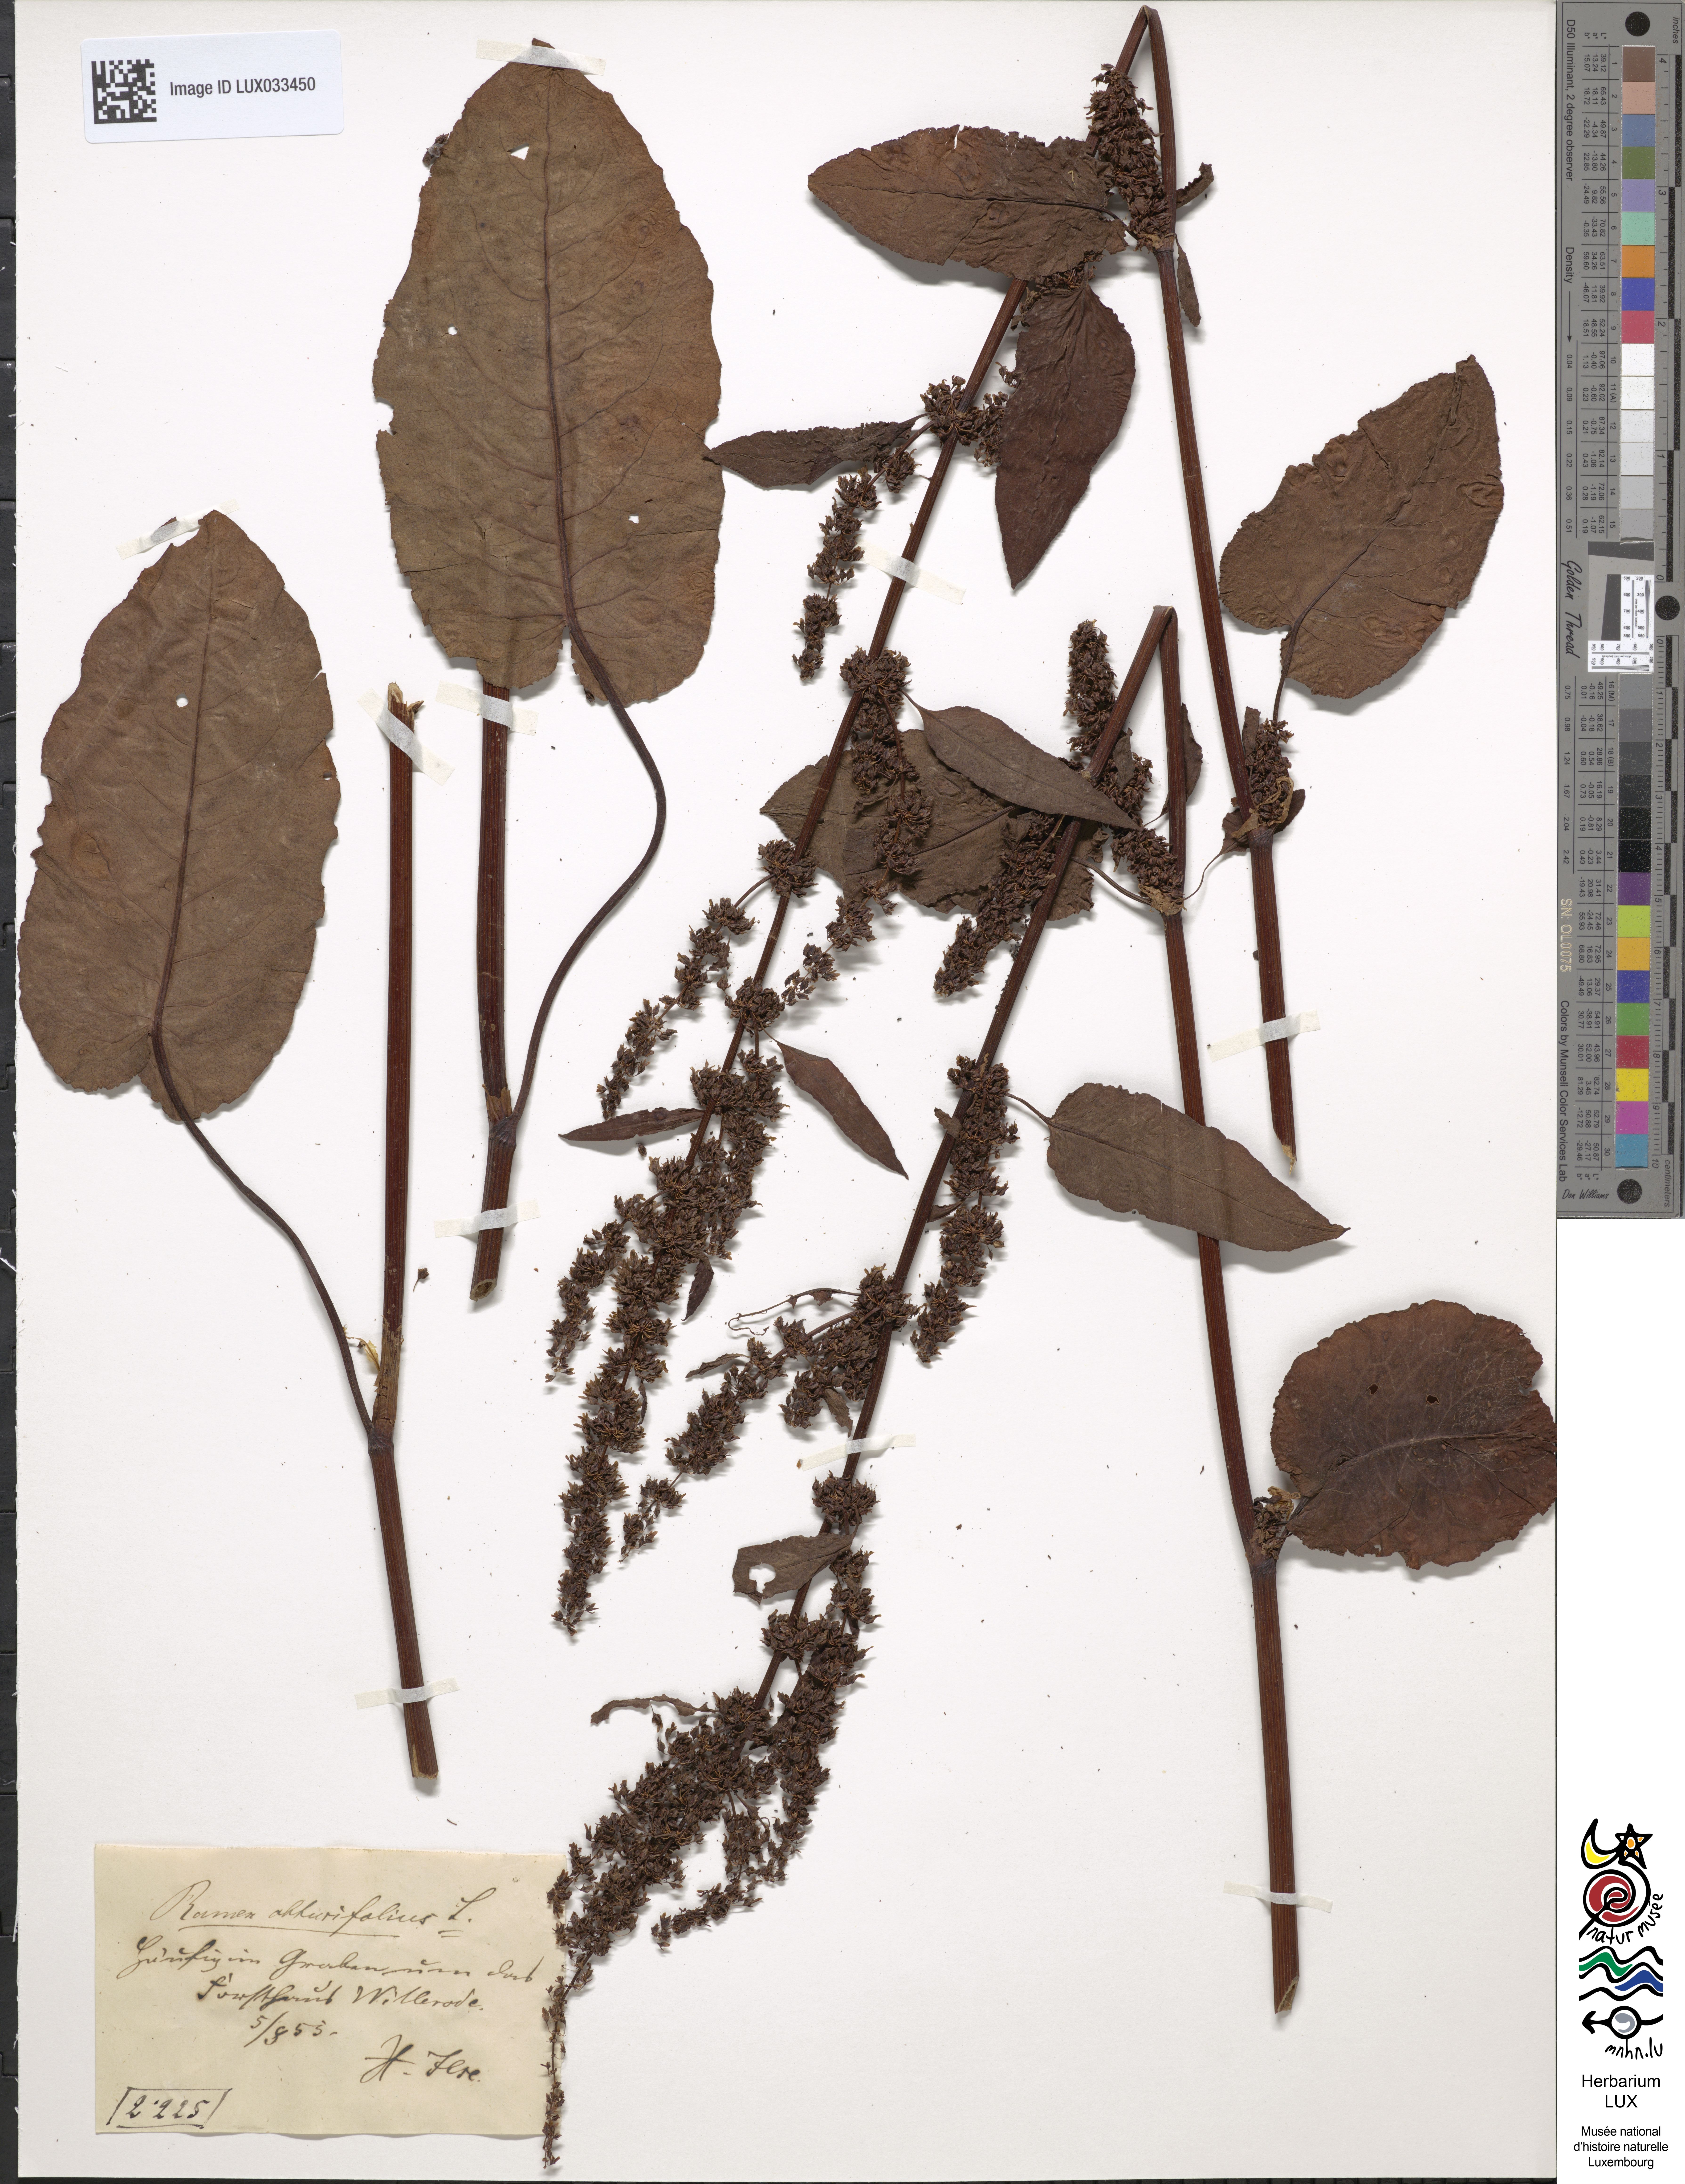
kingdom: Plantae
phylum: Tracheophyta
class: Magnoliopsida
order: Caryophyllales
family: Polygonaceae
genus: Rumex
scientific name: Rumex obtusifolius
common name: Bitter dock
